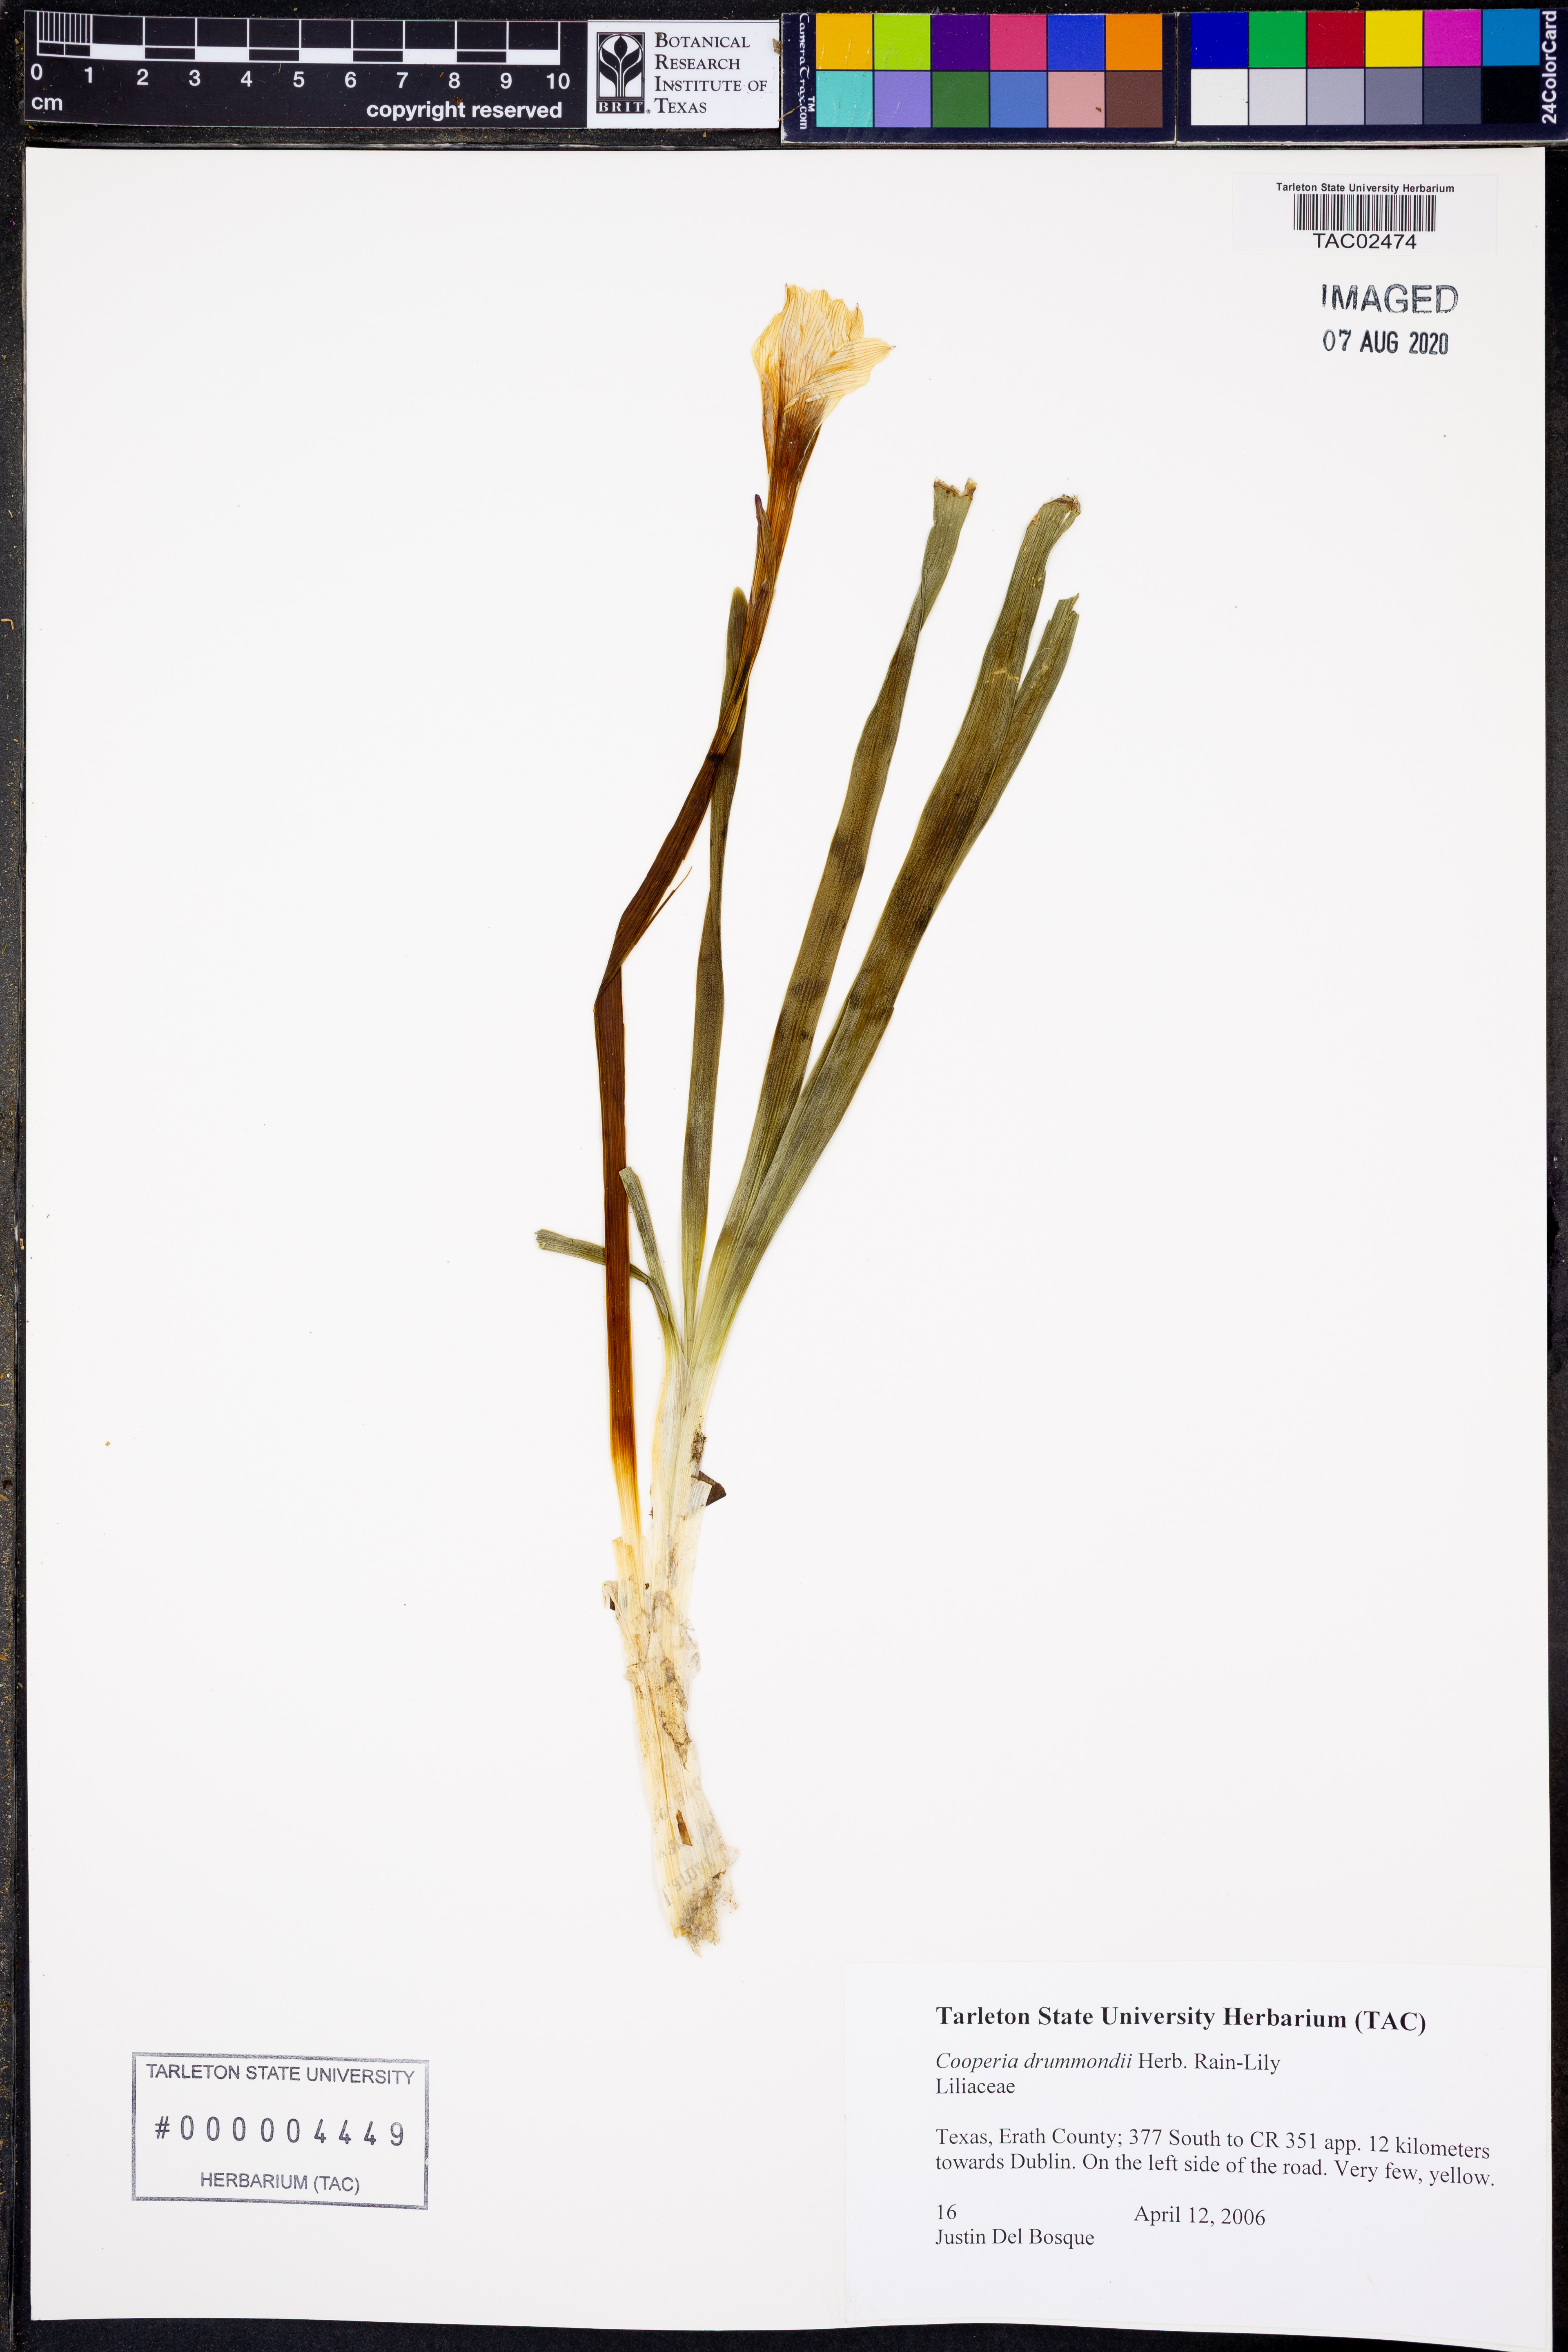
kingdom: Plantae
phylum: Tracheophyta
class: Liliopsida
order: Asparagales
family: Amaryllidaceae
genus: Zephyranthes
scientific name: Zephyranthes chlorosolen
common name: Evening rain-lily
